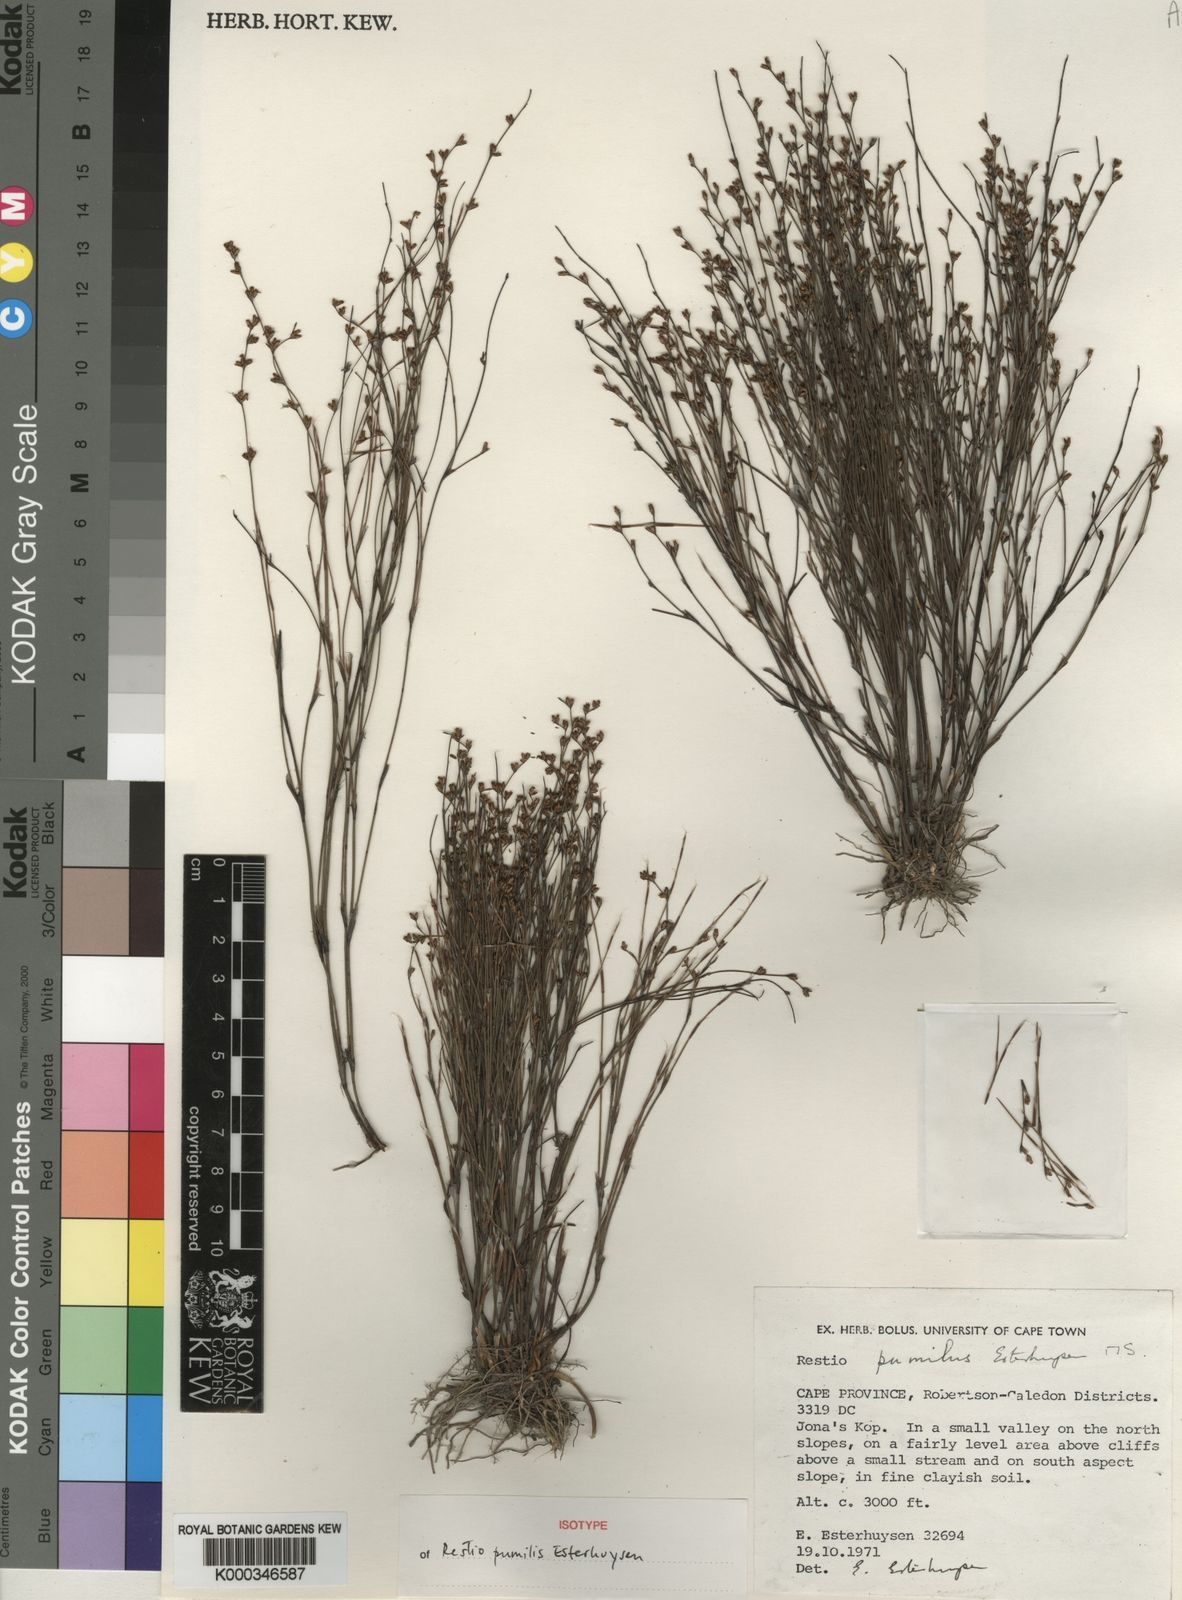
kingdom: Plantae
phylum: Tracheophyta
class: Liliopsida
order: Poales
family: Restionaceae
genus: Restio
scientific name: Restio
